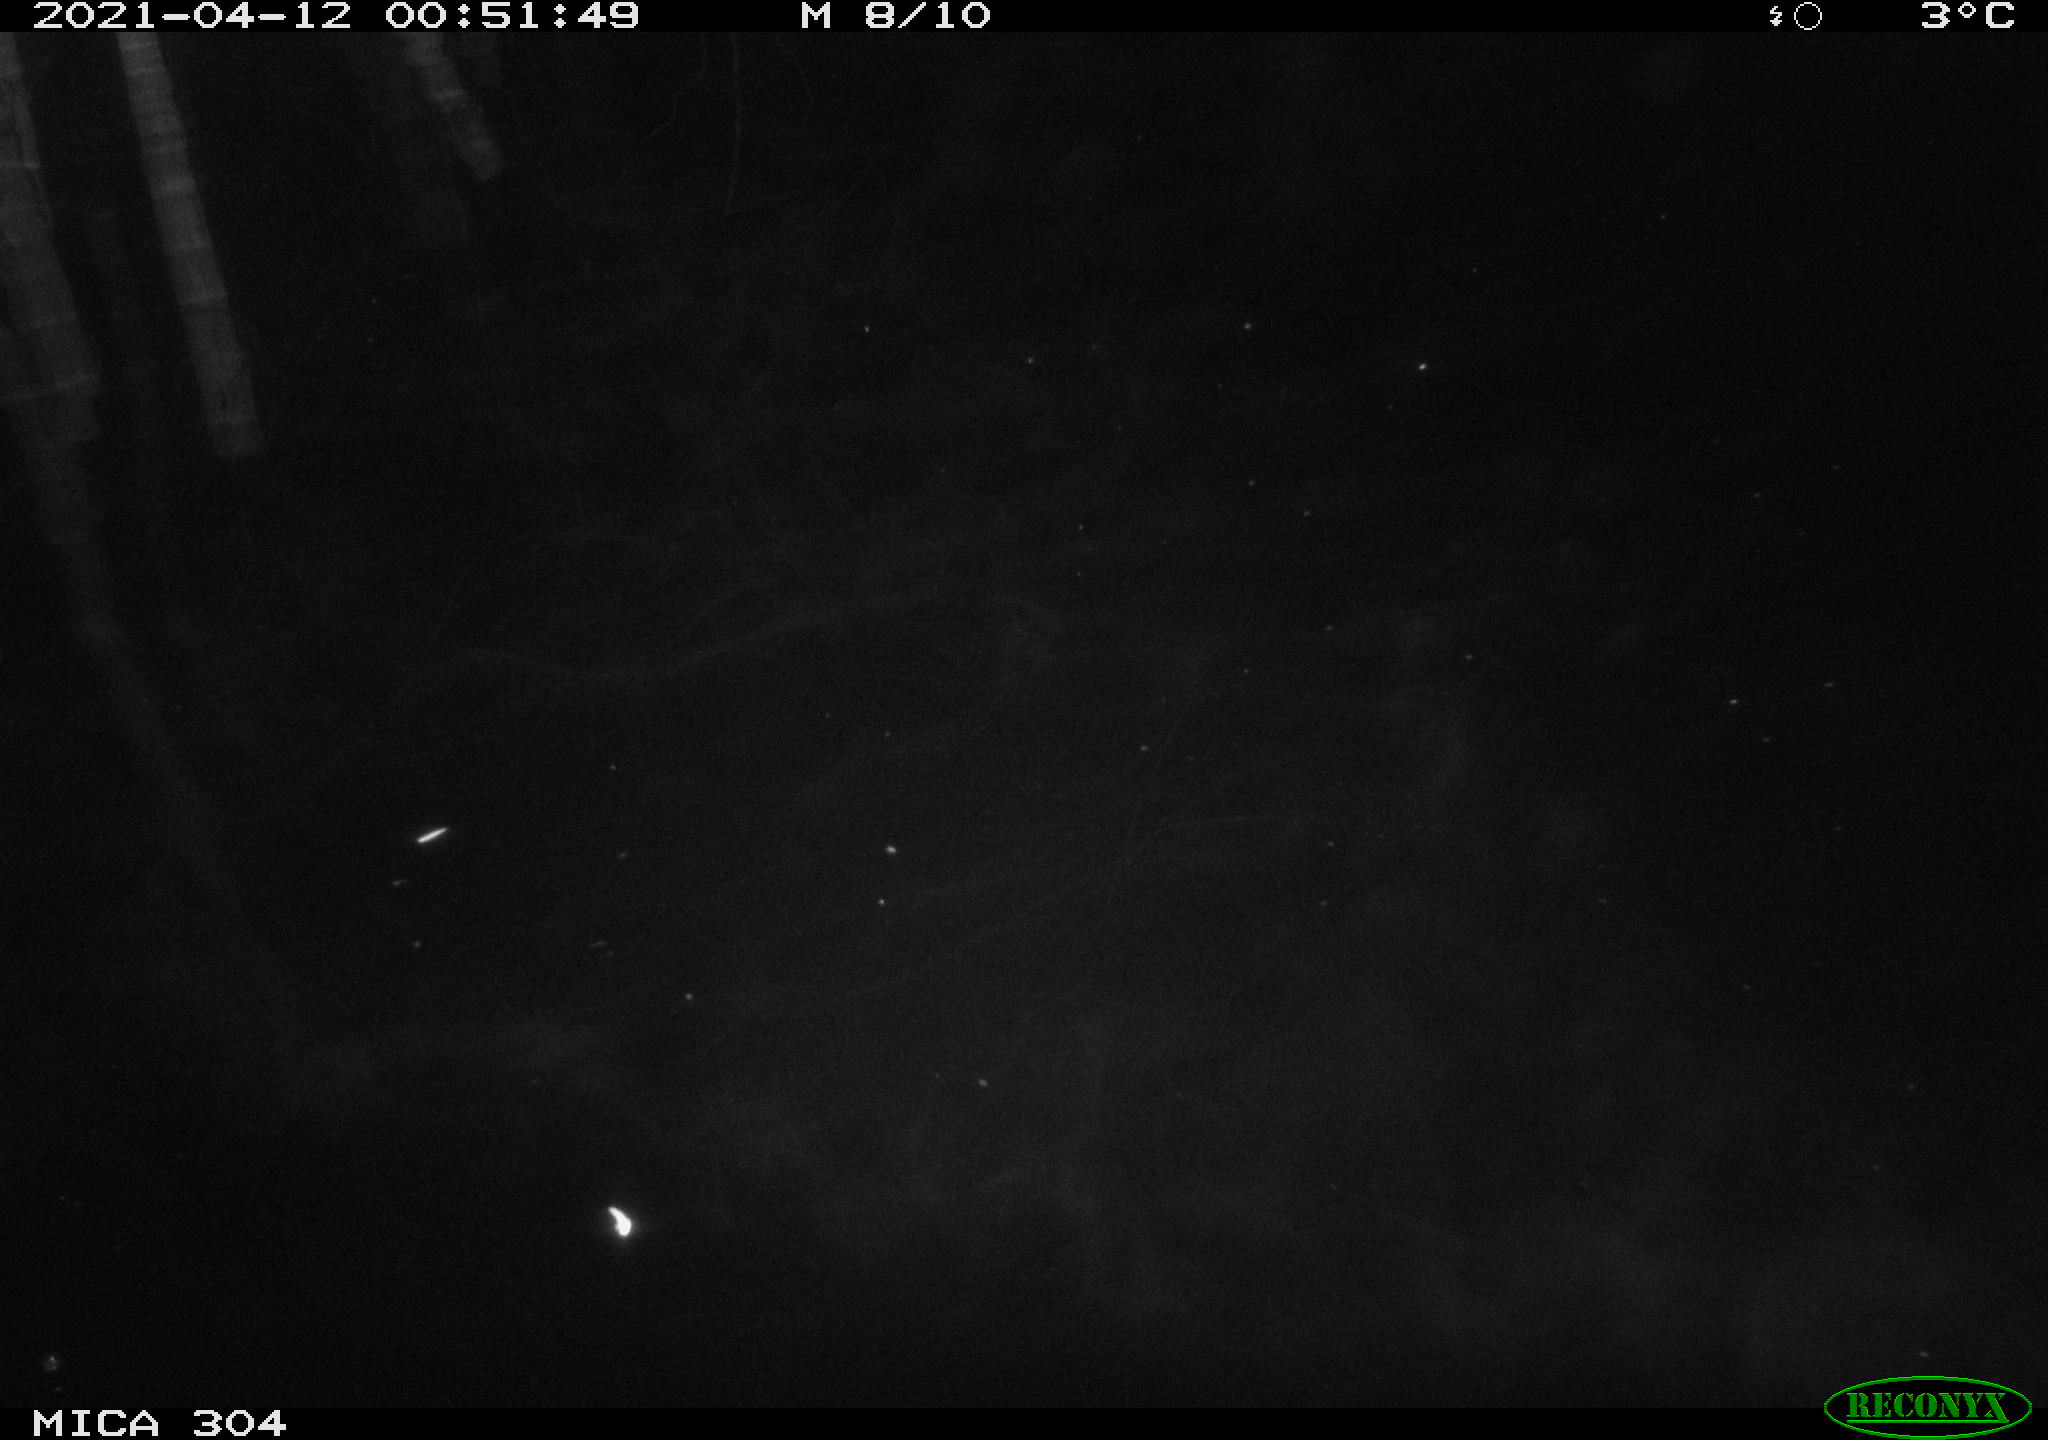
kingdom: Animalia
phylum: Chordata
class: Aves
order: Anseriformes
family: Anatidae
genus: Anas
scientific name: Anas
